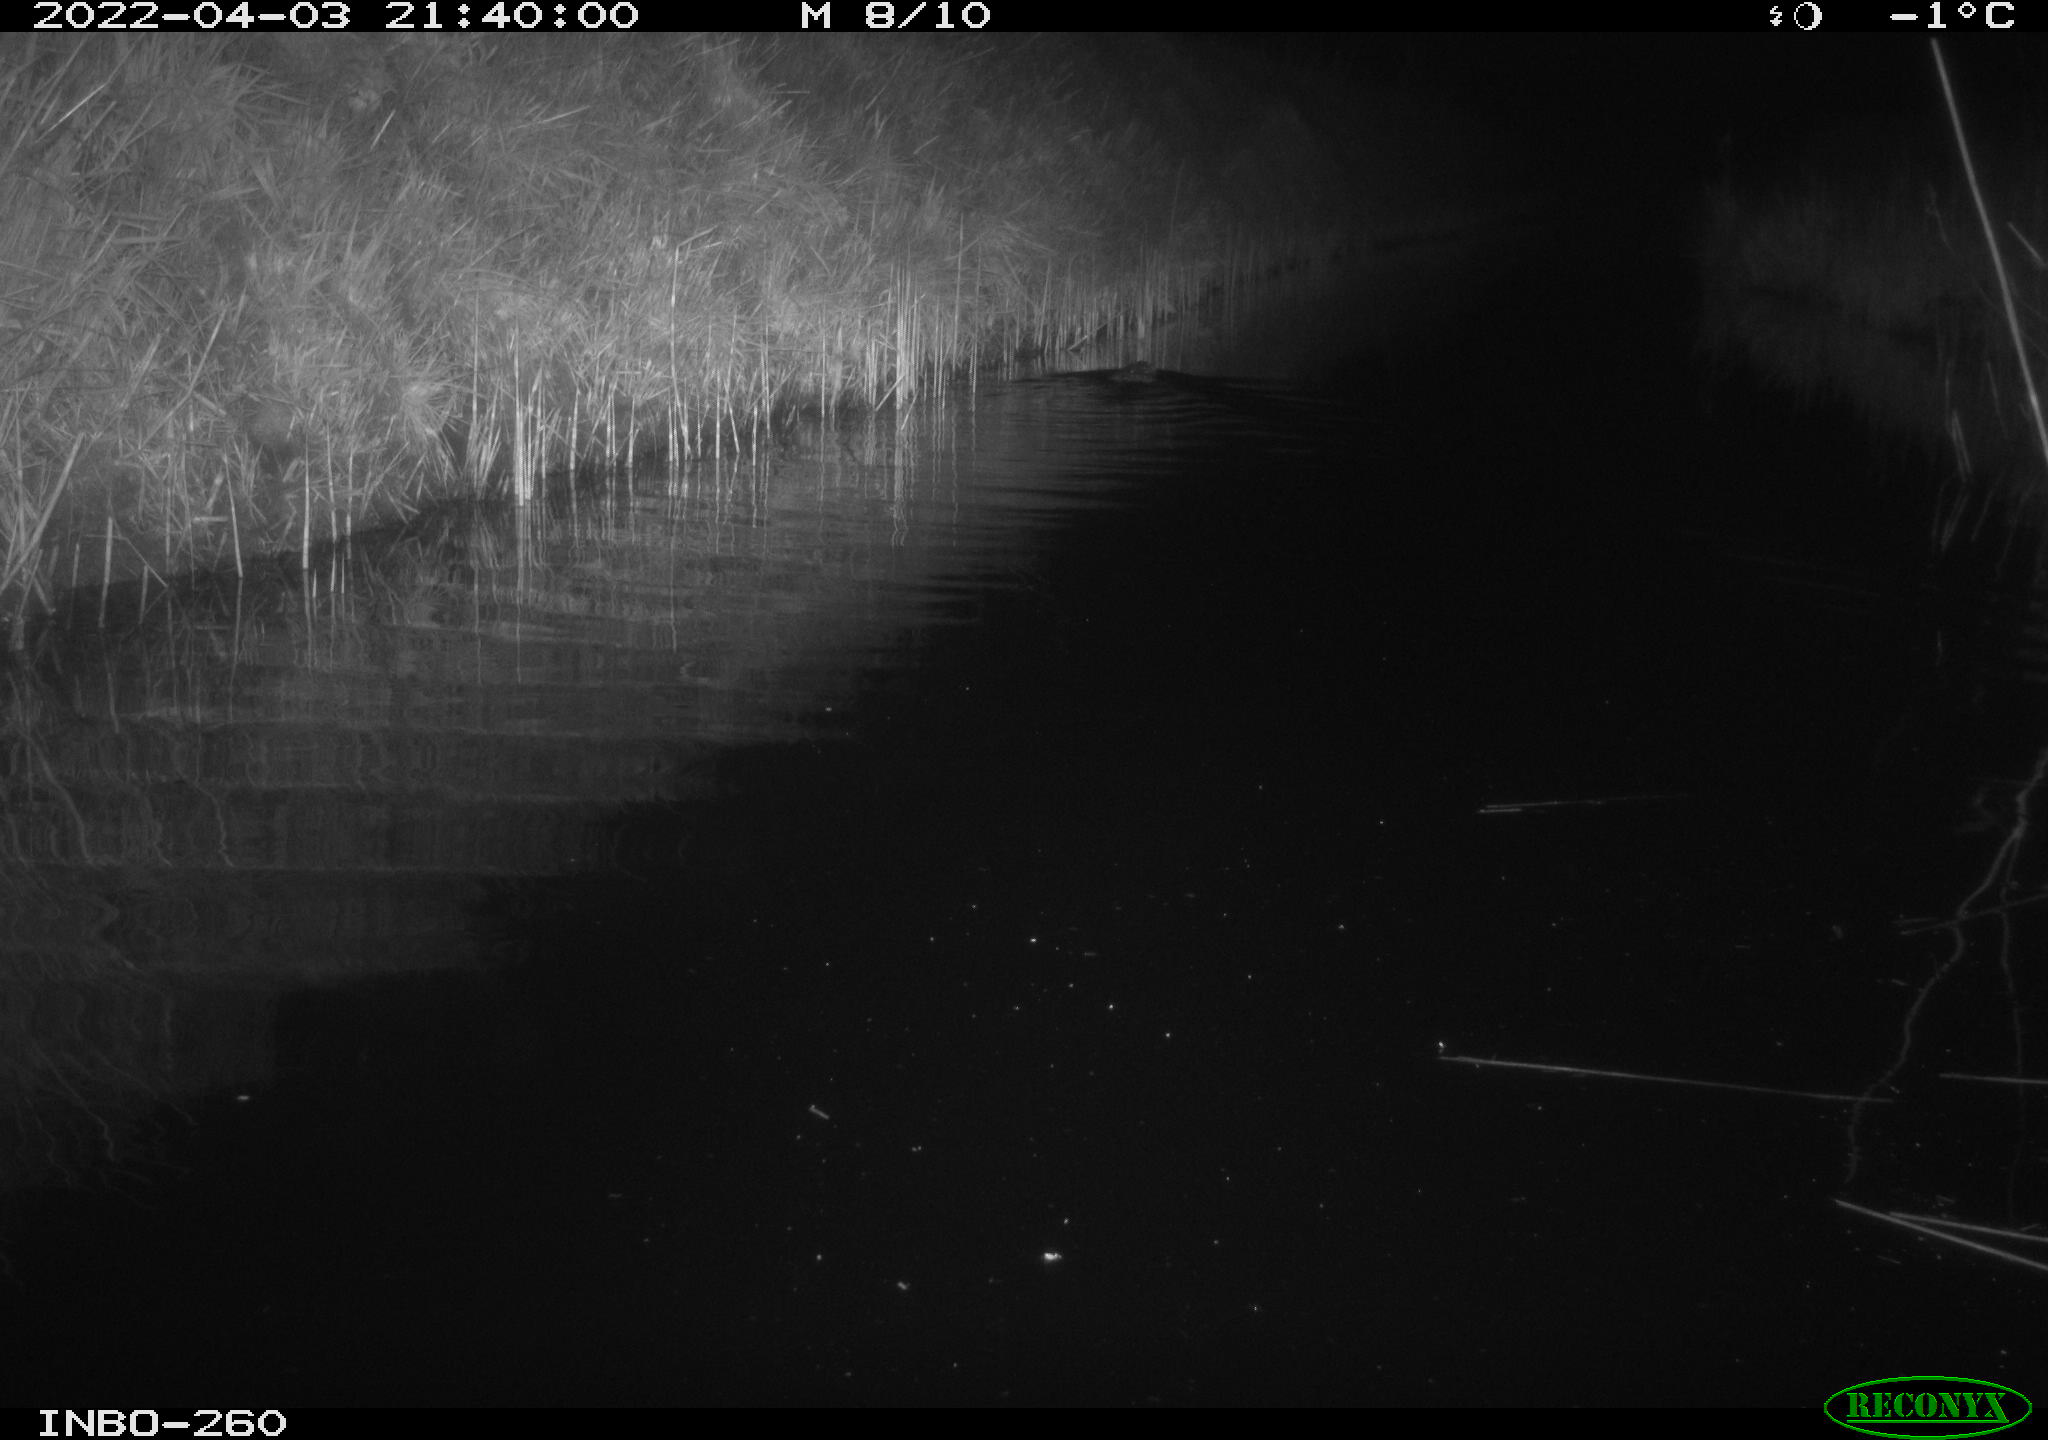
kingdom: Animalia
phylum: Chordata
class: Mammalia
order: Rodentia
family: Cricetidae
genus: Ondatra
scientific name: Ondatra zibethicus
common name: Muskrat
